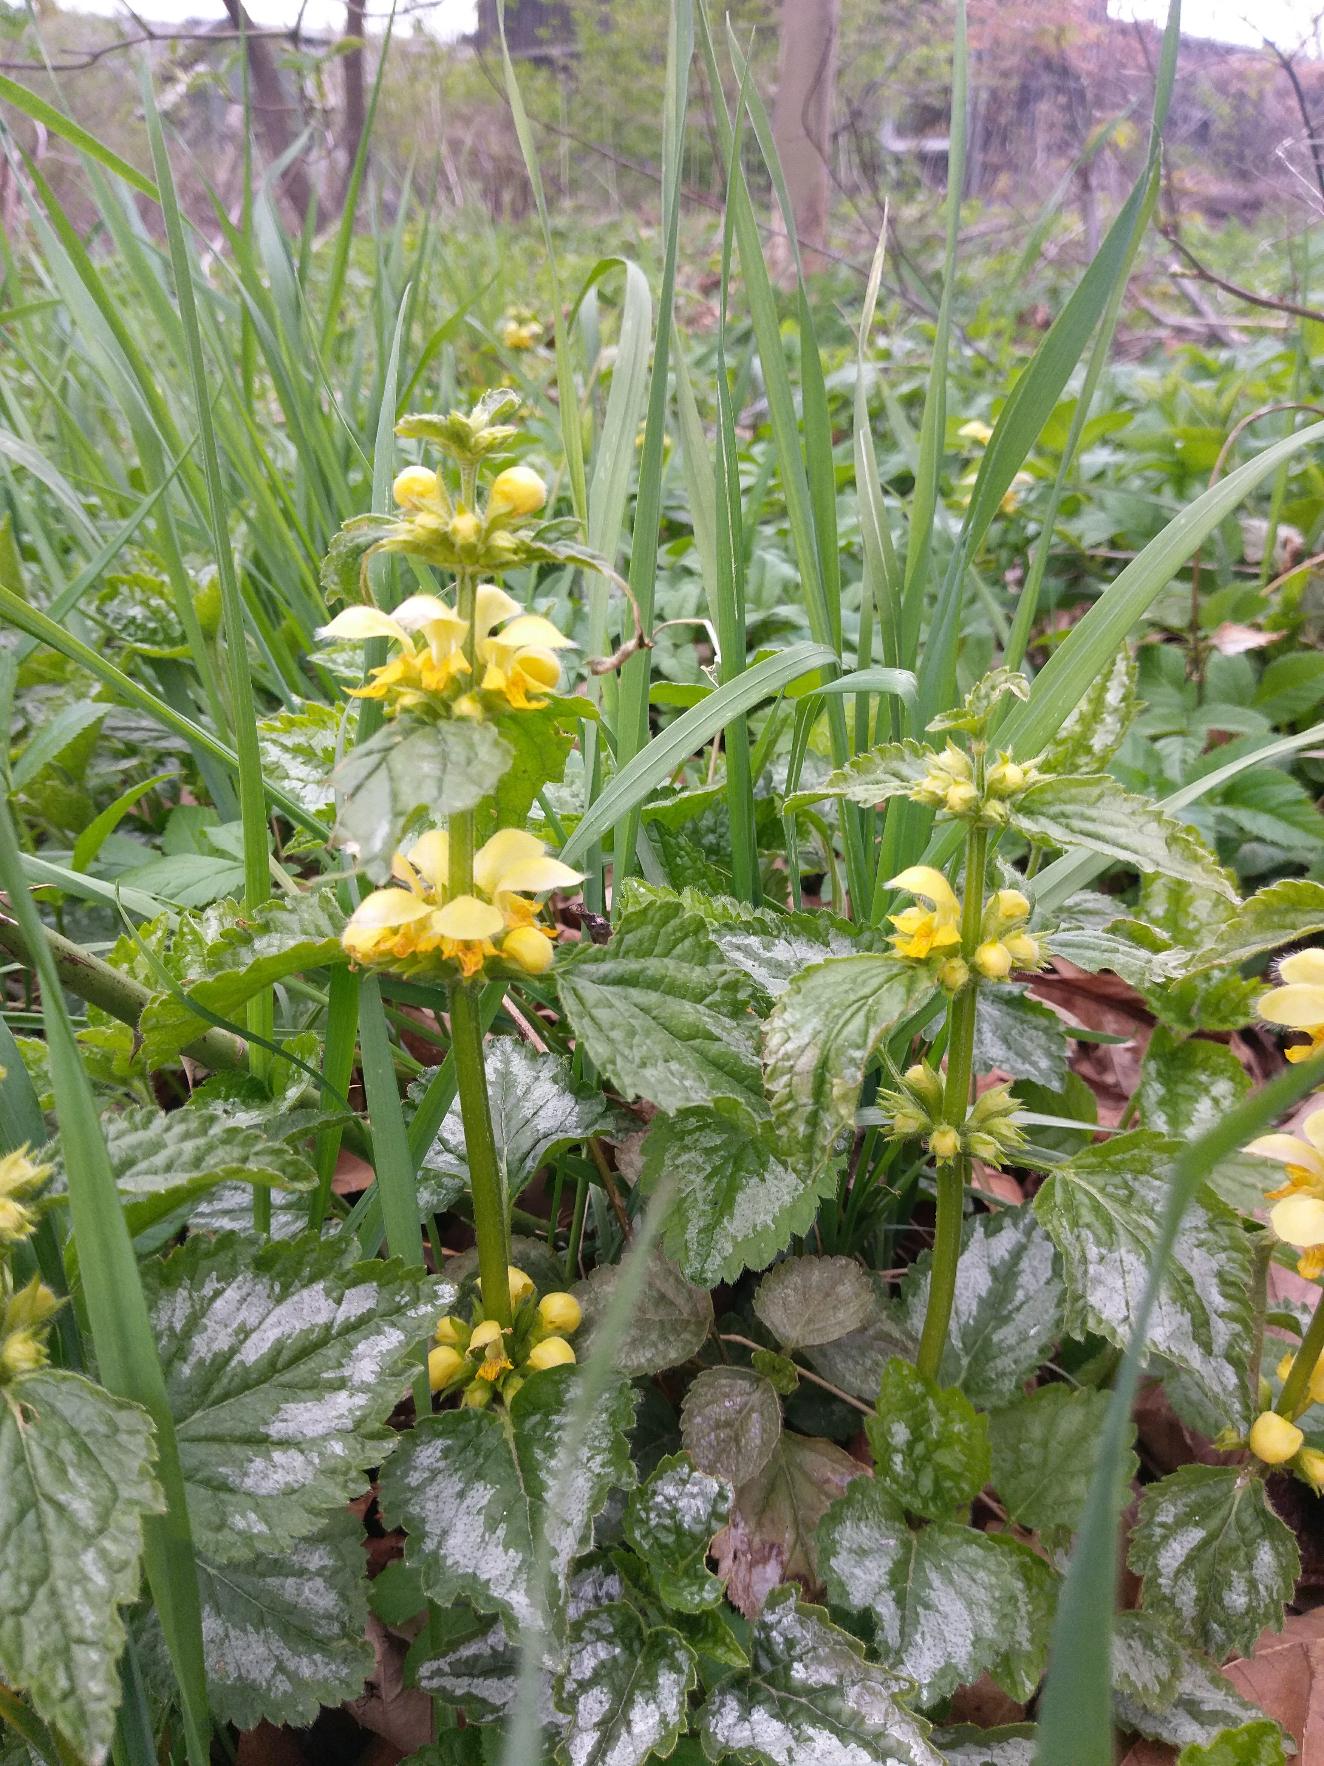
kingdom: Plantae
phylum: Tracheophyta
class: Magnoliopsida
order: Lamiales
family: Lamiaceae
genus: Lamium
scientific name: Lamium galeobdolon
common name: Have-guldnælde
